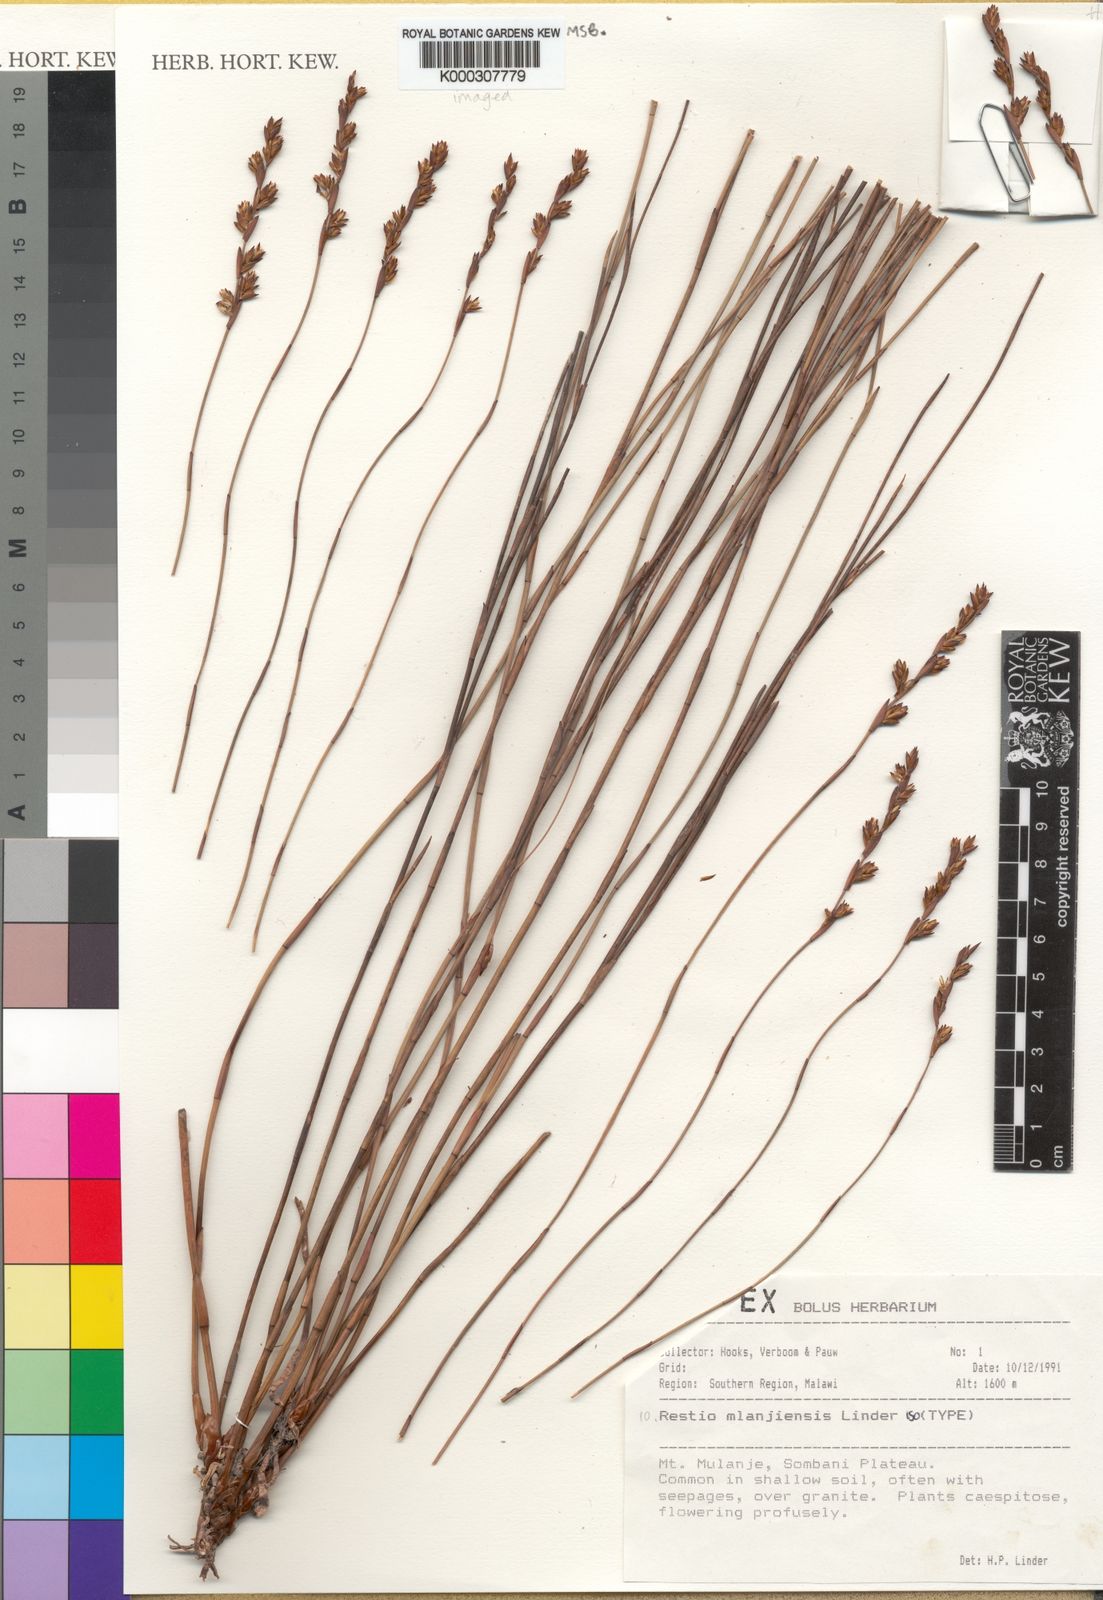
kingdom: Plantae
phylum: Tracheophyta
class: Liliopsida
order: Poales
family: Restionaceae
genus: Platycaulos
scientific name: Platycaulos mlanjiensis
